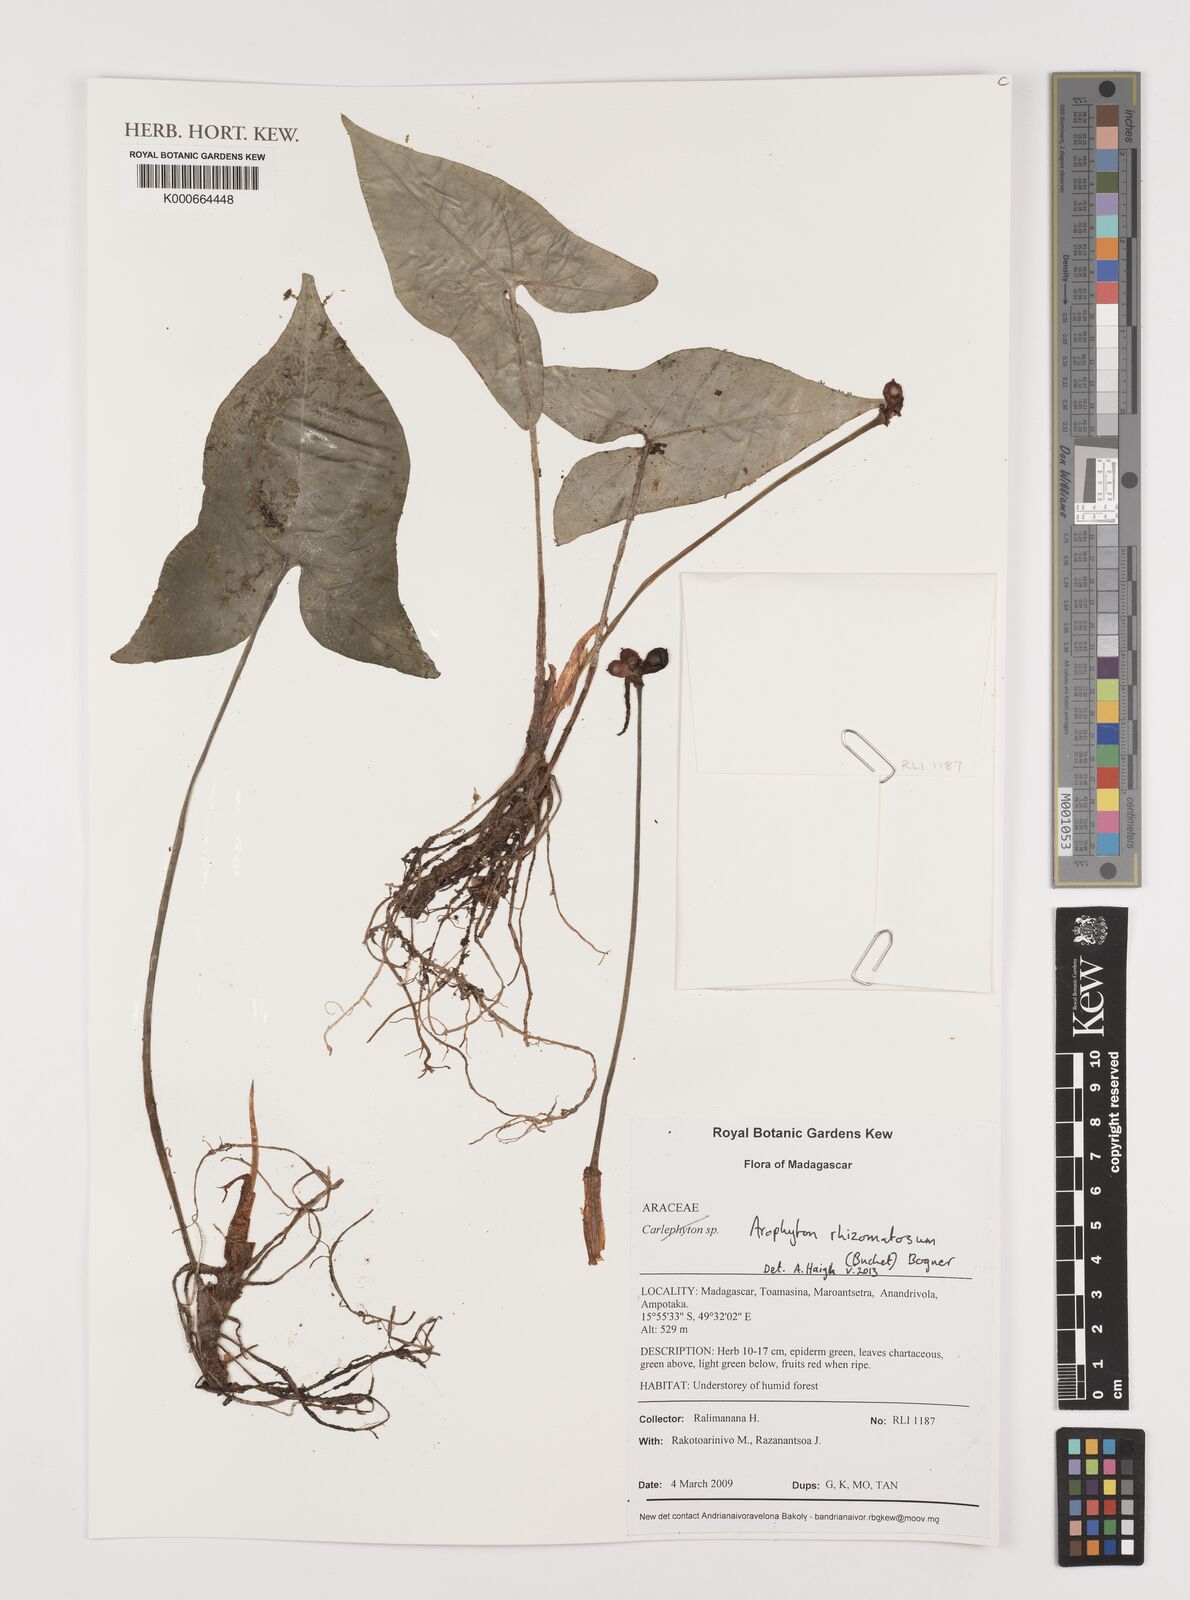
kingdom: Plantae
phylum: Tracheophyta
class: Liliopsida
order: Alismatales
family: Araceae
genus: Arophyton
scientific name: Arophyton rhizomatosum
